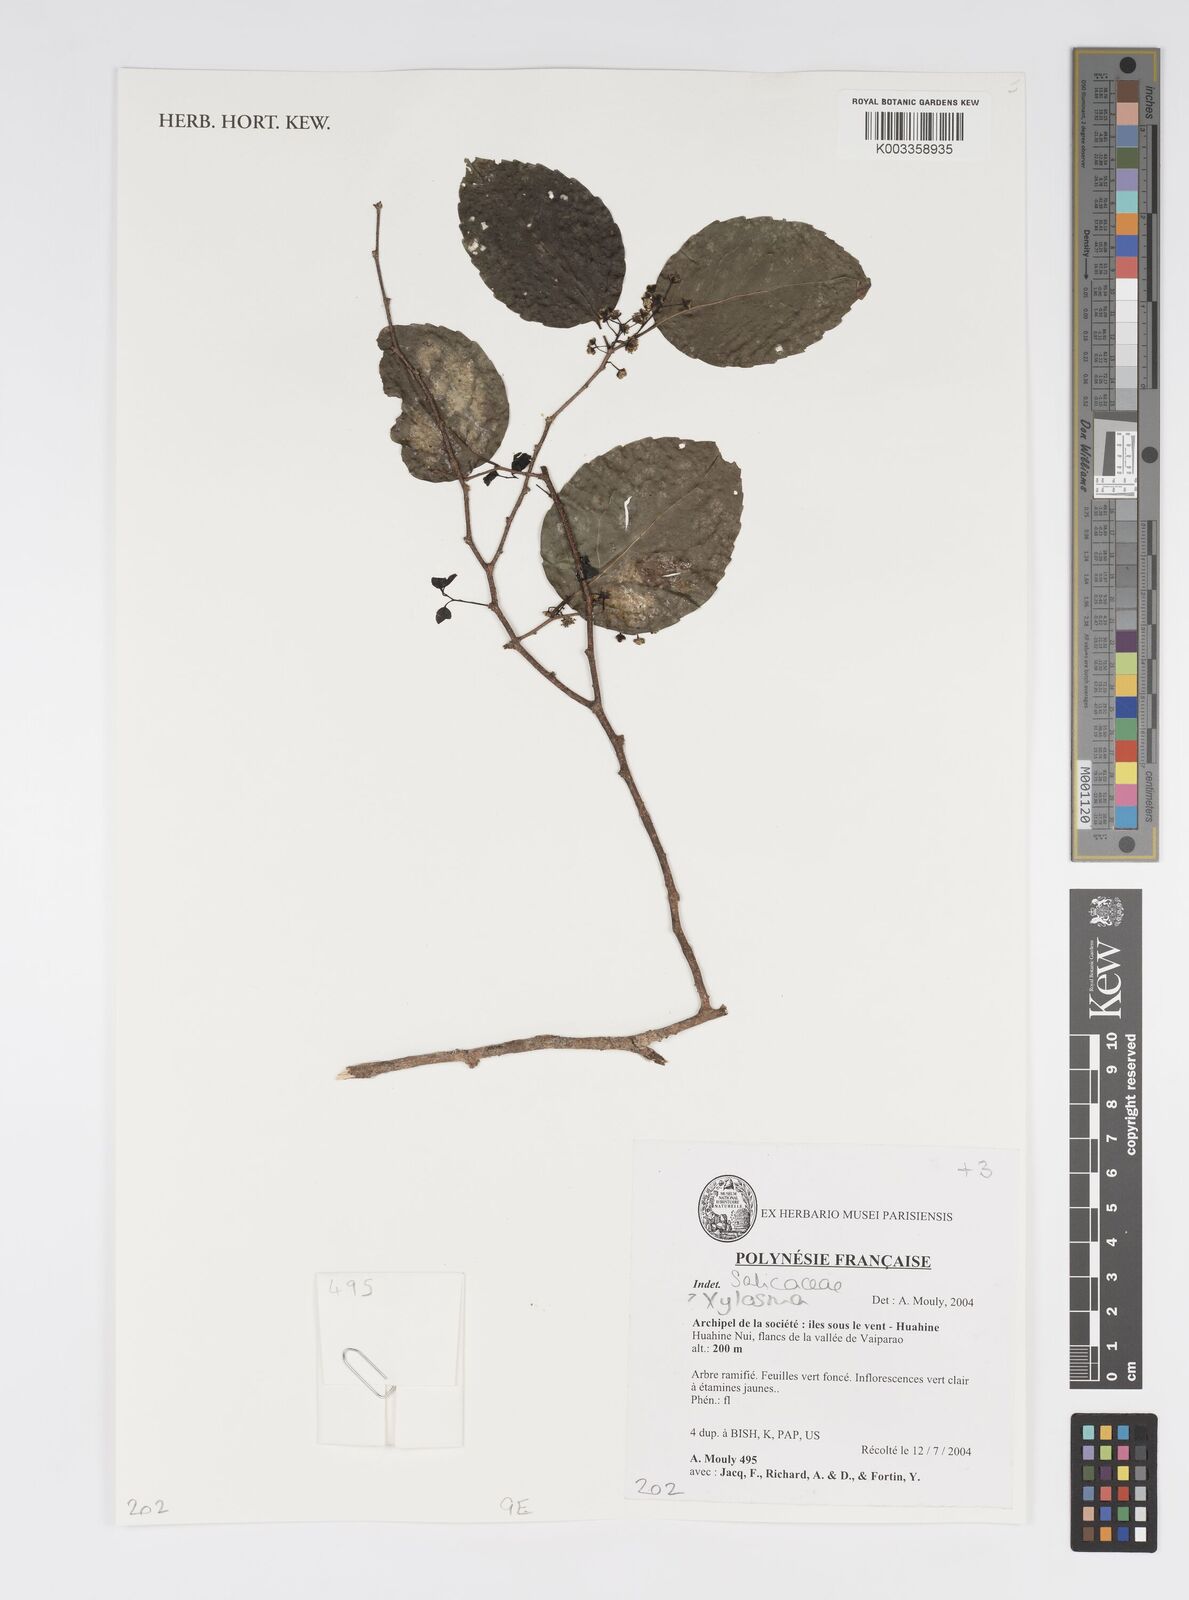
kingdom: Plantae
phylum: Tracheophyta
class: Magnoliopsida
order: Malpighiales
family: Salicaceae
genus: Xylosma
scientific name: Xylosma
